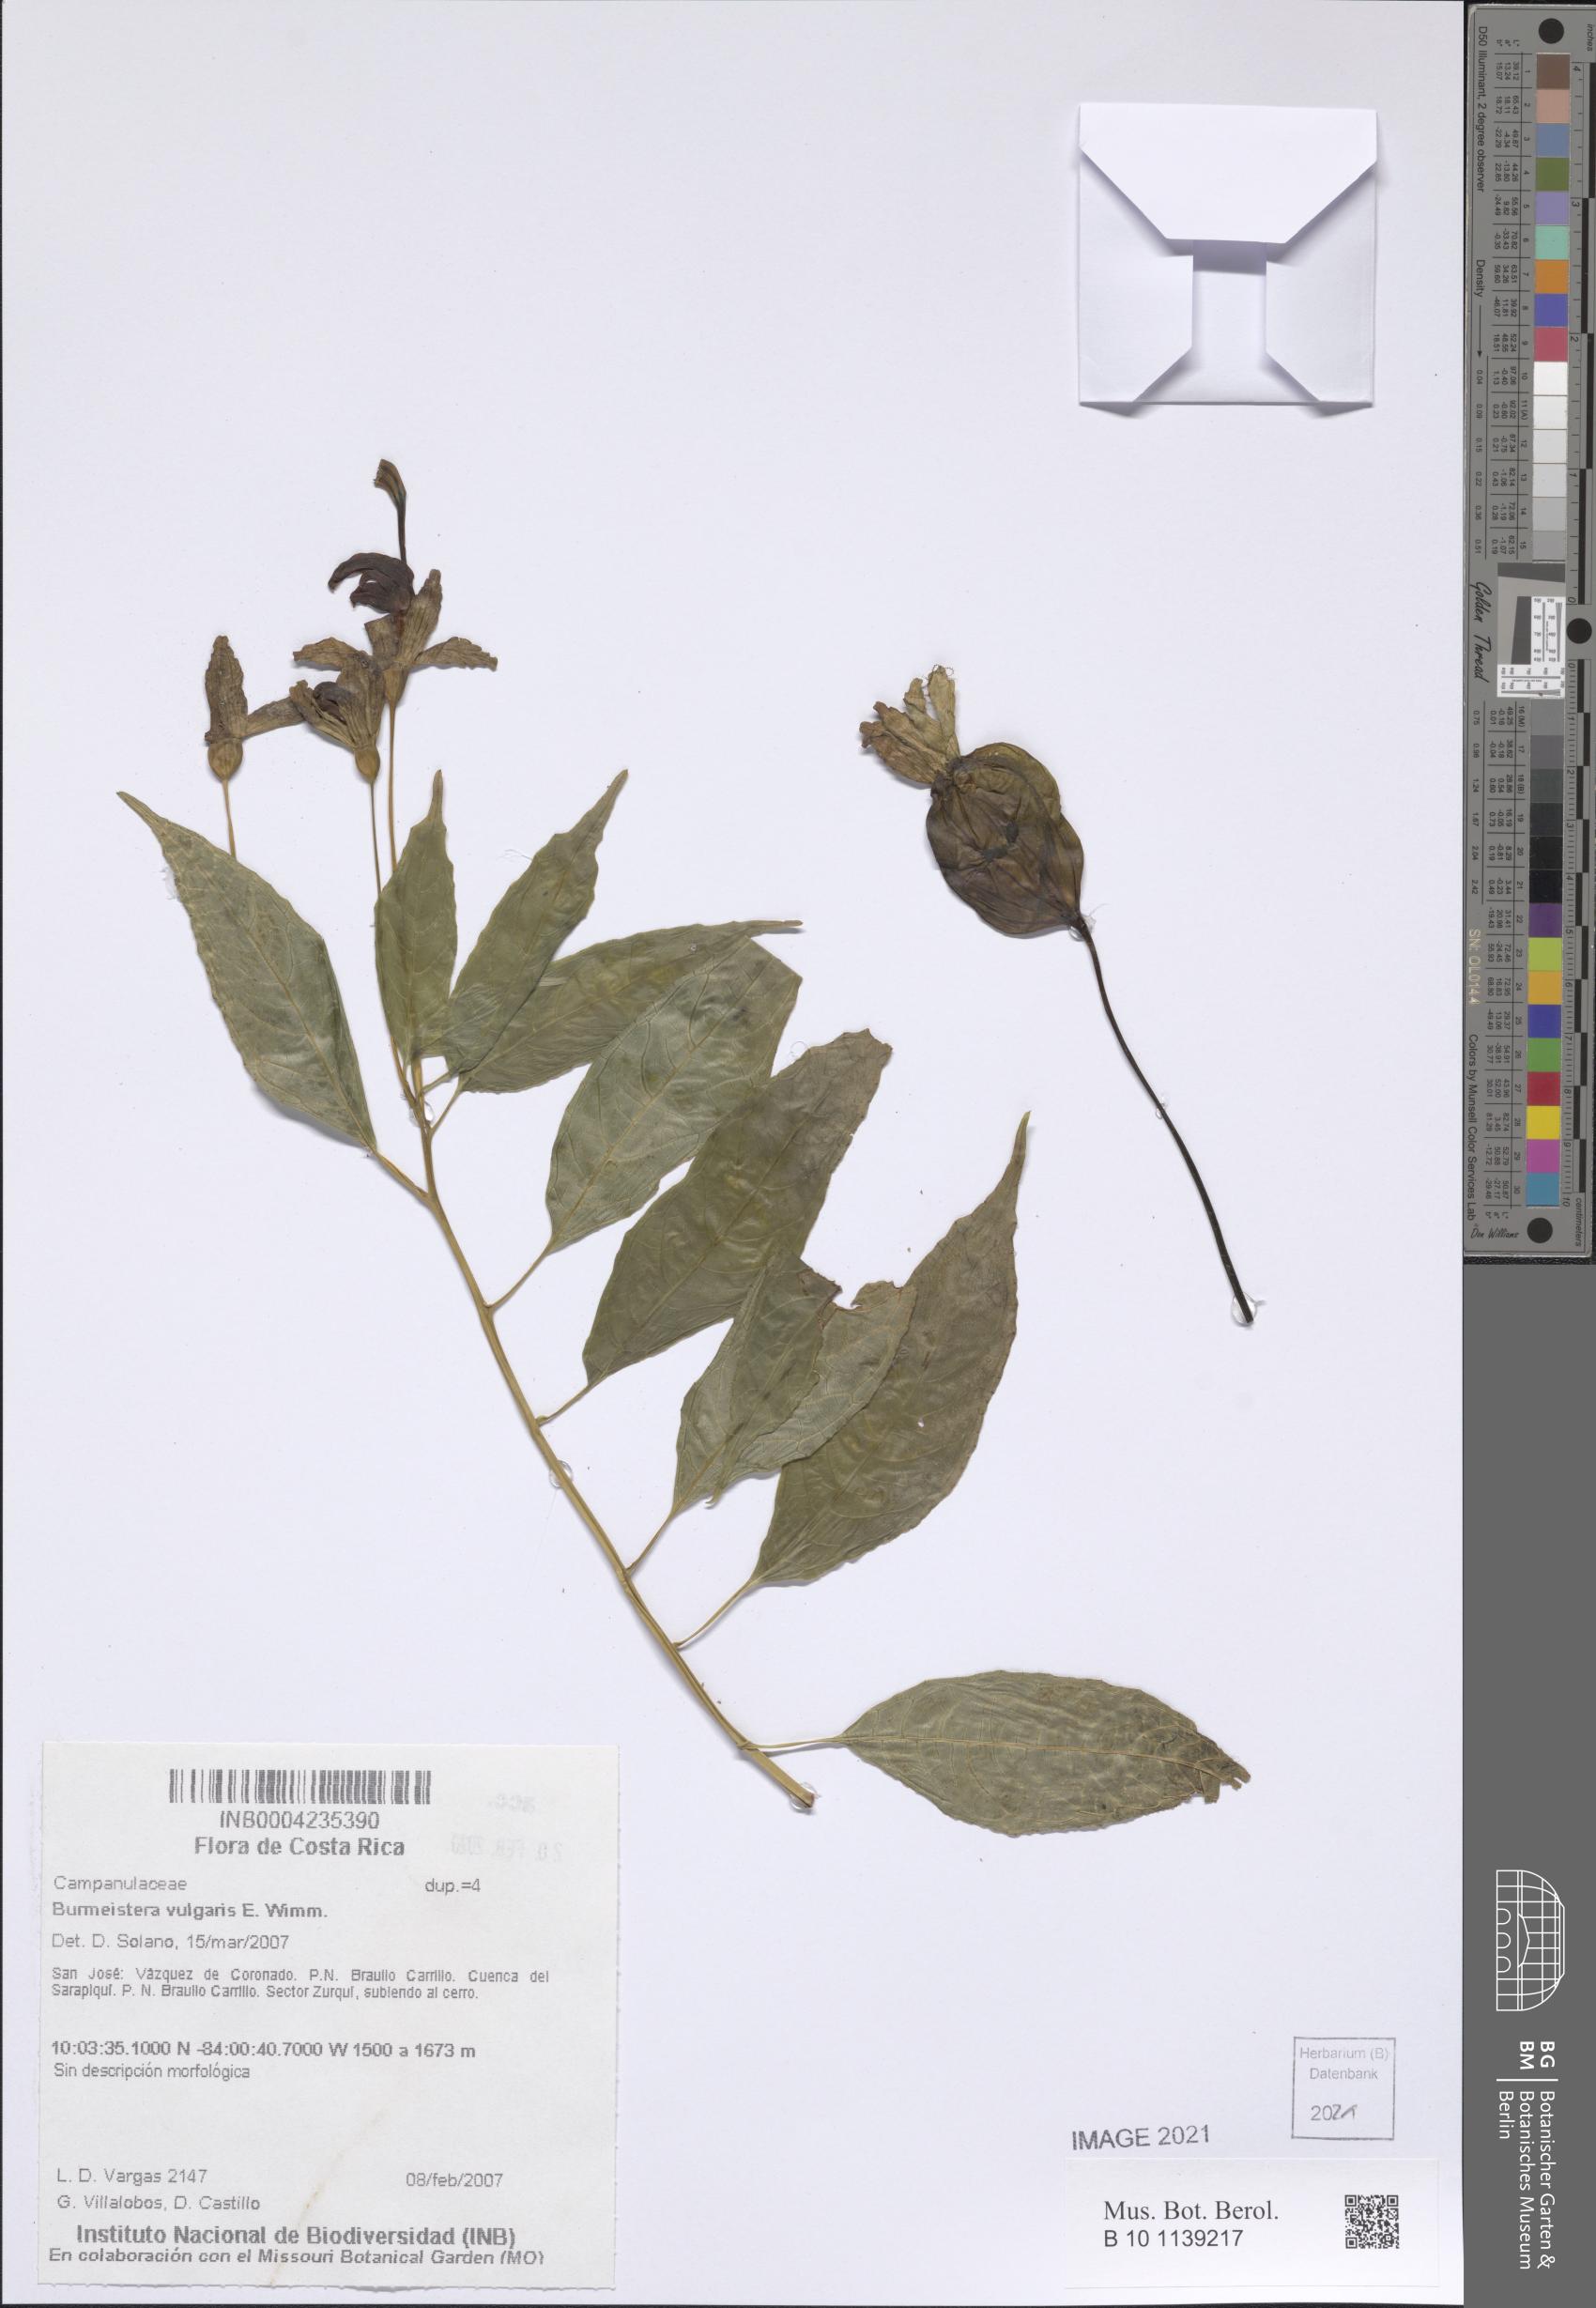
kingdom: Plantae
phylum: Tracheophyta
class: Magnoliopsida
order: Asterales
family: Campanulaceae
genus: Burmeistera
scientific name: Burmeistera vulgaris
